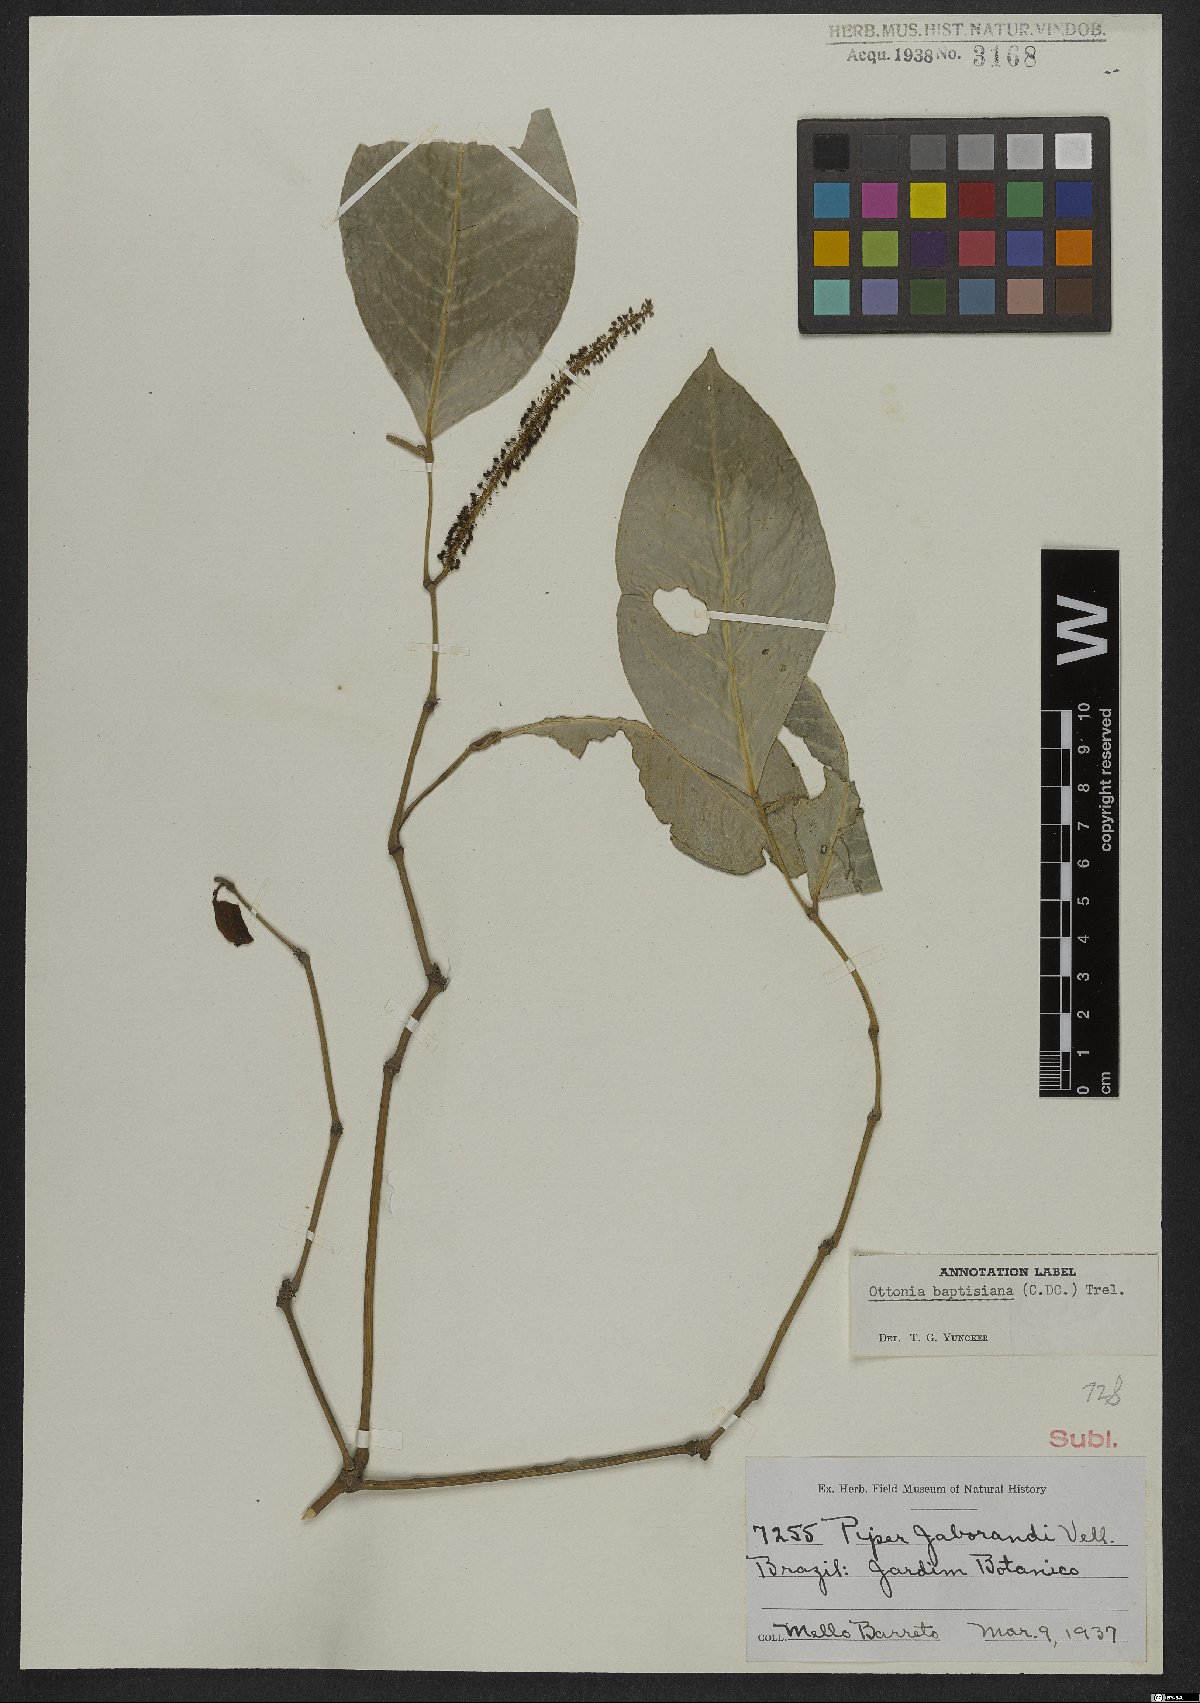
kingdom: Plantae
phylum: Tracheophyta
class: Magnoliopsida
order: Piperales
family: Piperaceae
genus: Piper
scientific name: Piper corcovadense
